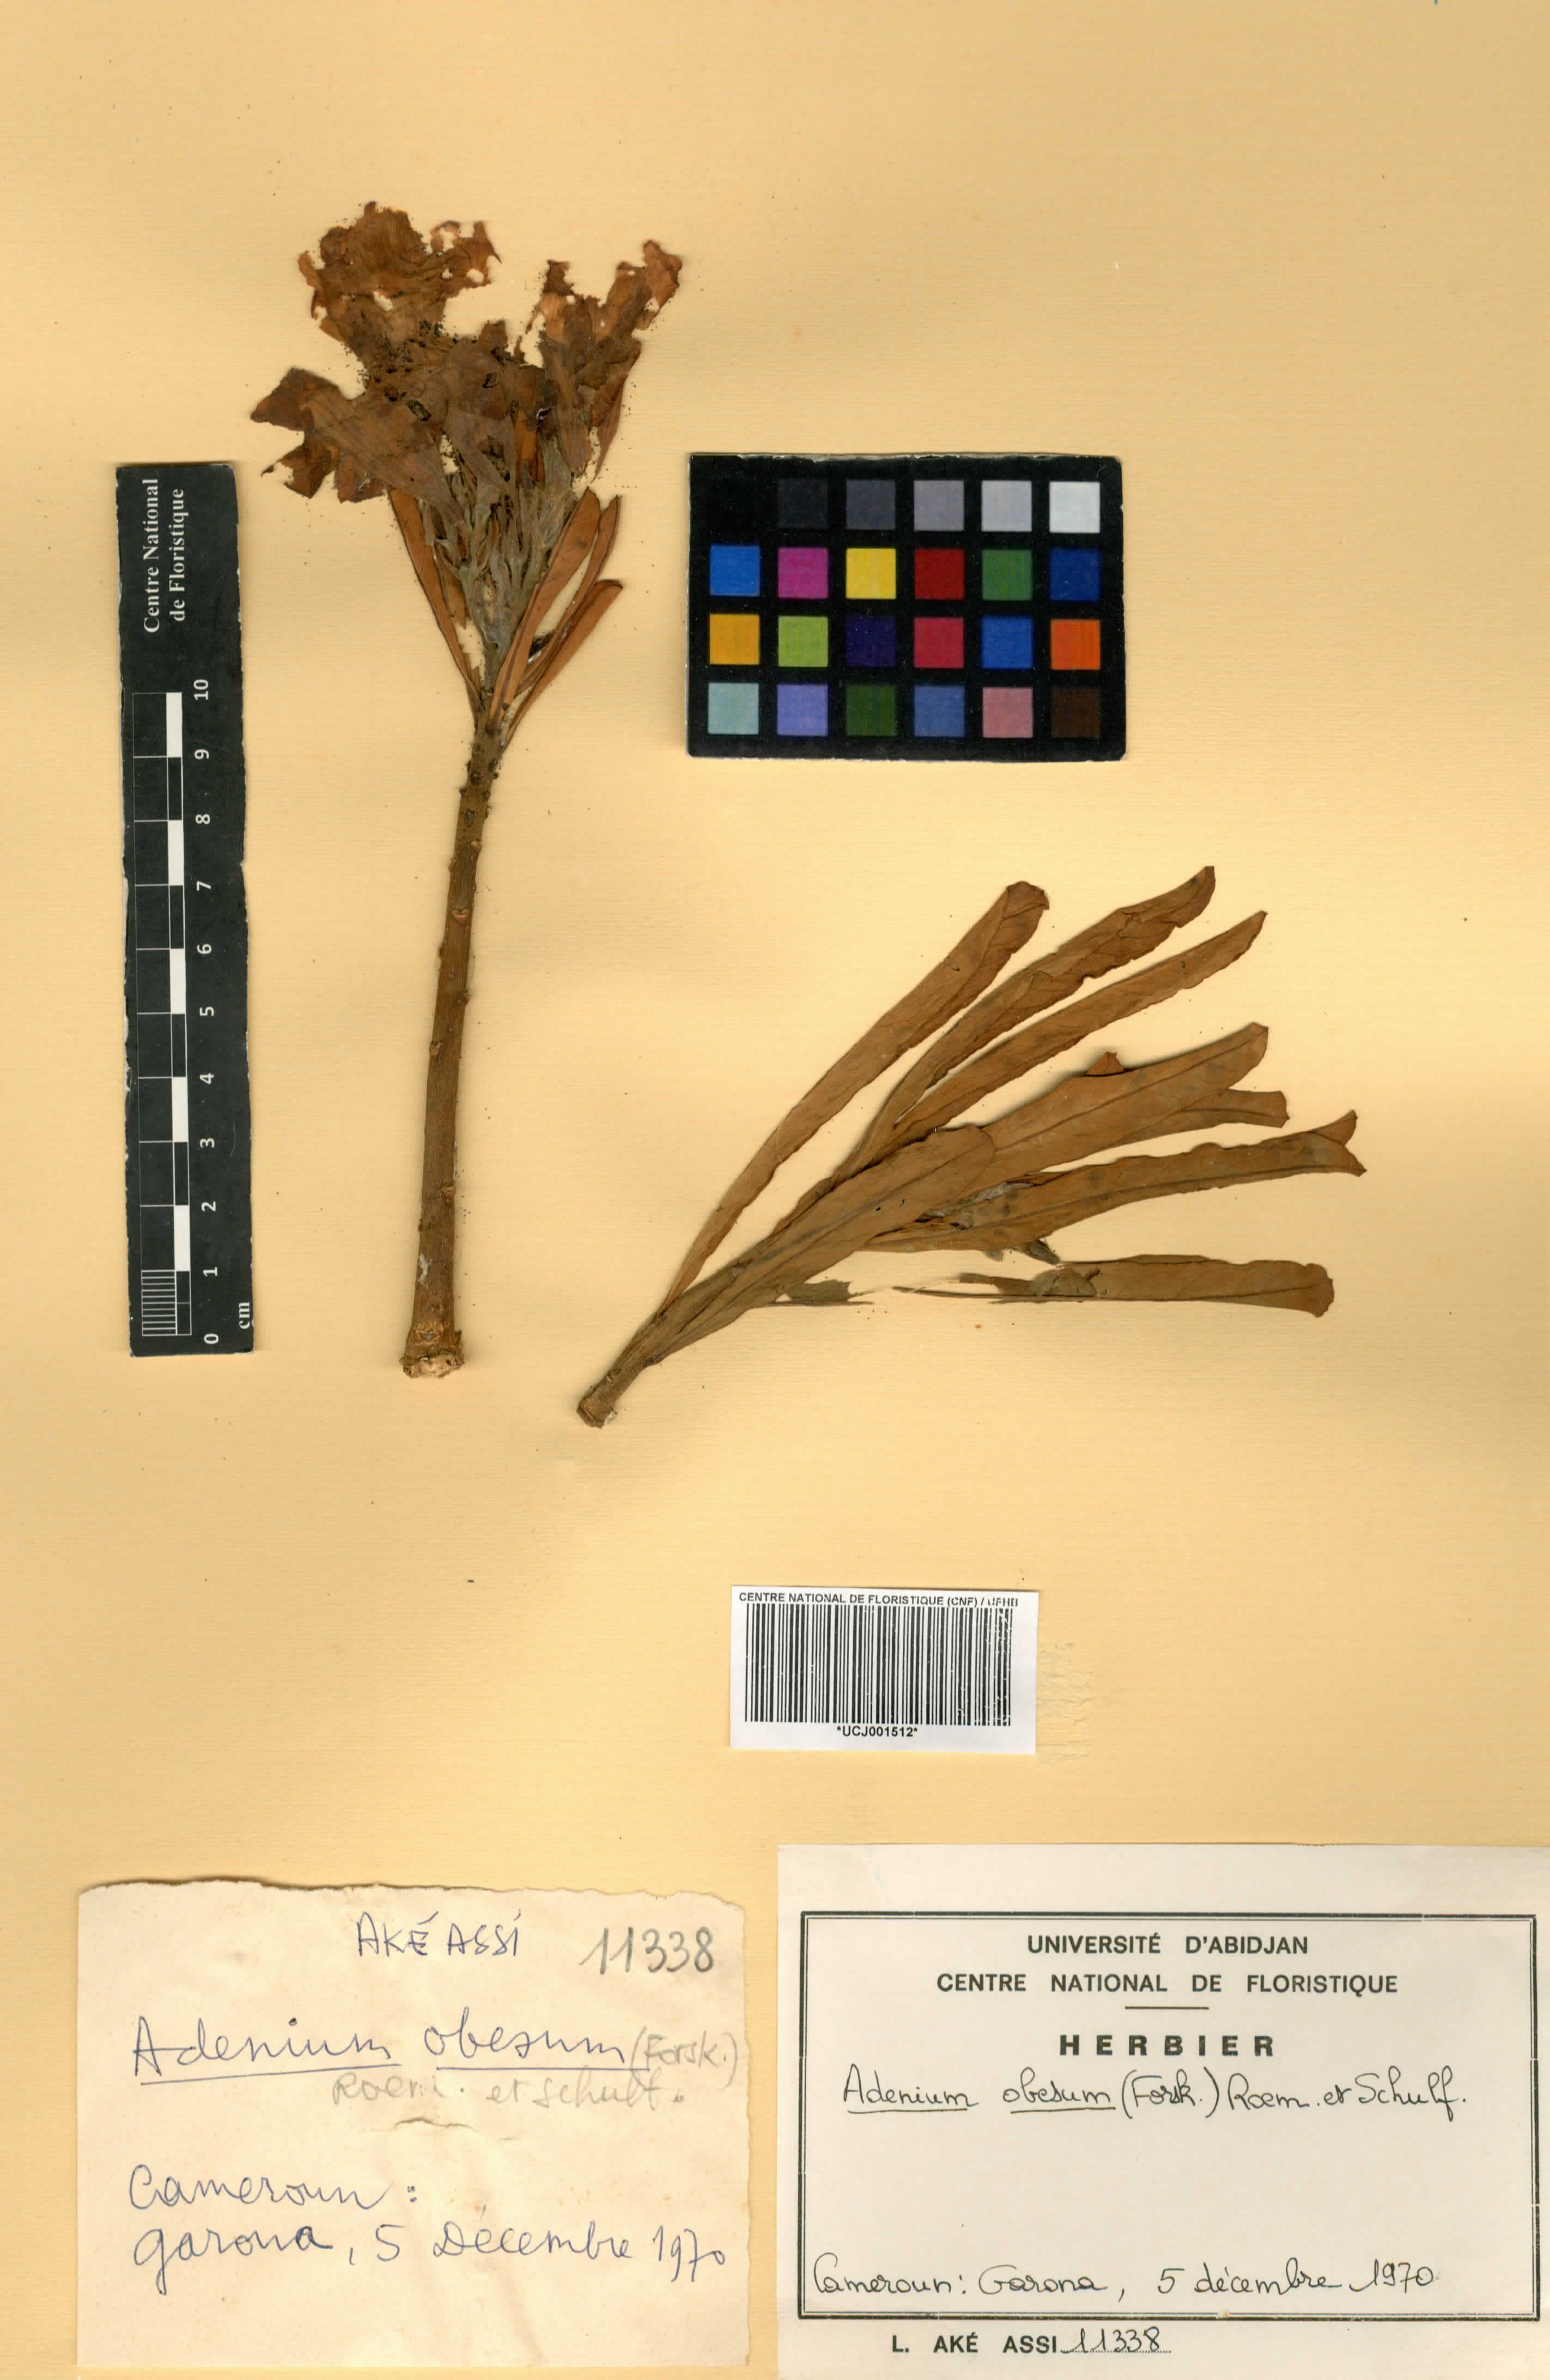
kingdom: Plantae
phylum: Tracheophyta
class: Magnoliopsida
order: Gentianales
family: Apocynaceae
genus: Adenium
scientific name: Adenium obesum
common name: Desert-rose
